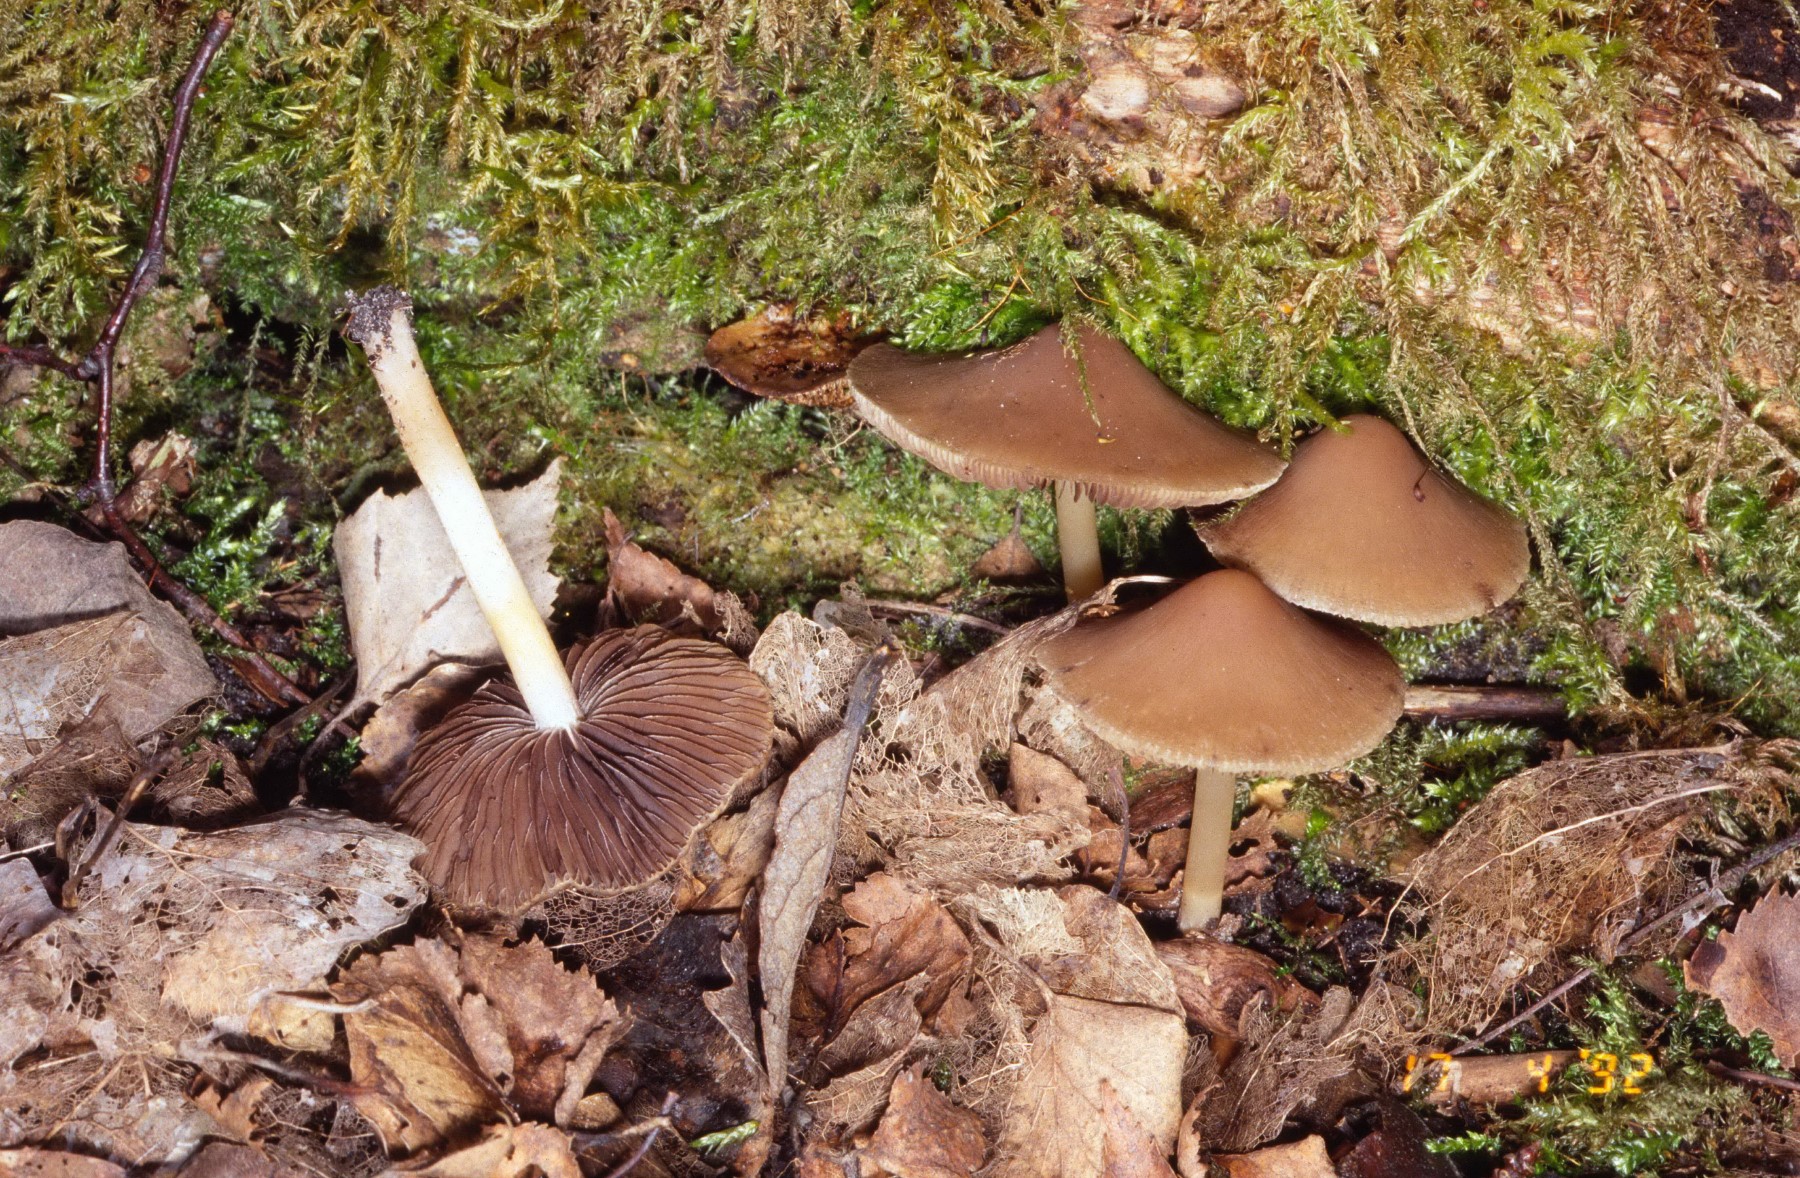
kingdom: Fungi
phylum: Basidiomycota
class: Agaricomycetes
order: Agaricales
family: Psathyrellaceae
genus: Psathyrella
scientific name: Psathyrella spadiceogrisea
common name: gråbrun mørkhat
